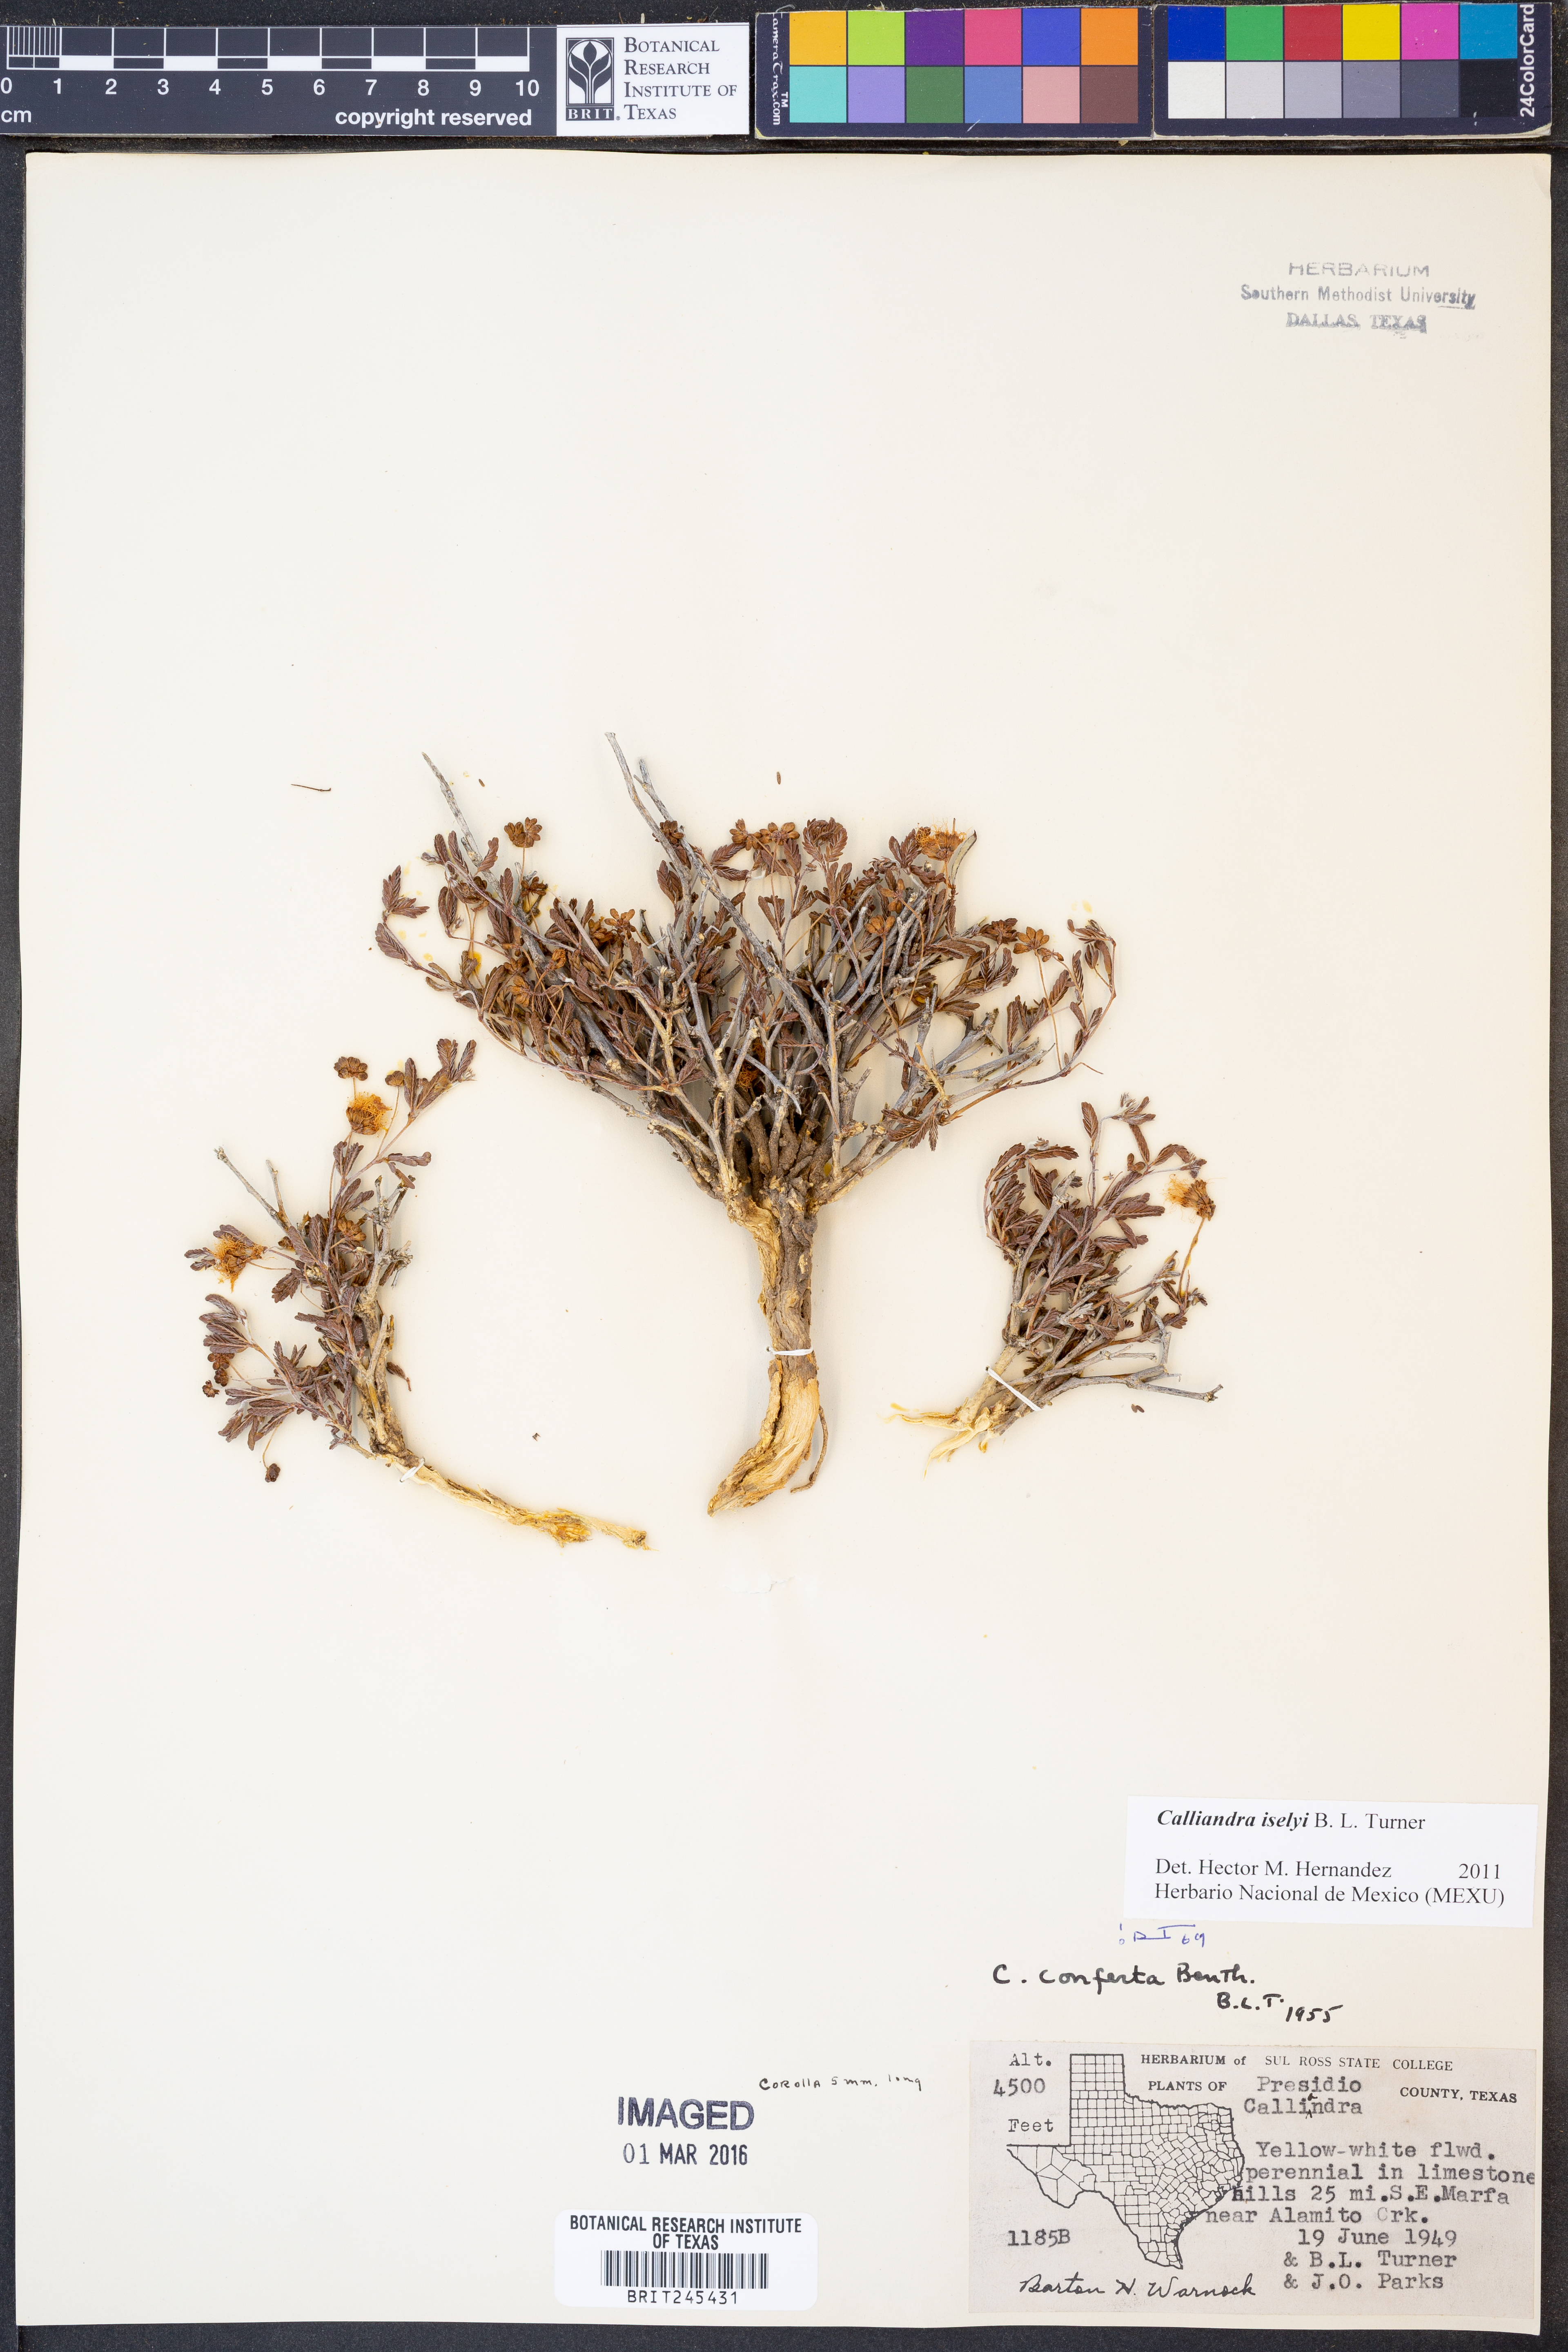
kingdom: Plantae
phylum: Tracheophyta
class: Magnoliopsida
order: Fabales
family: Fabaceae
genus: Calliandra
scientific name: Calliandra iselyi
